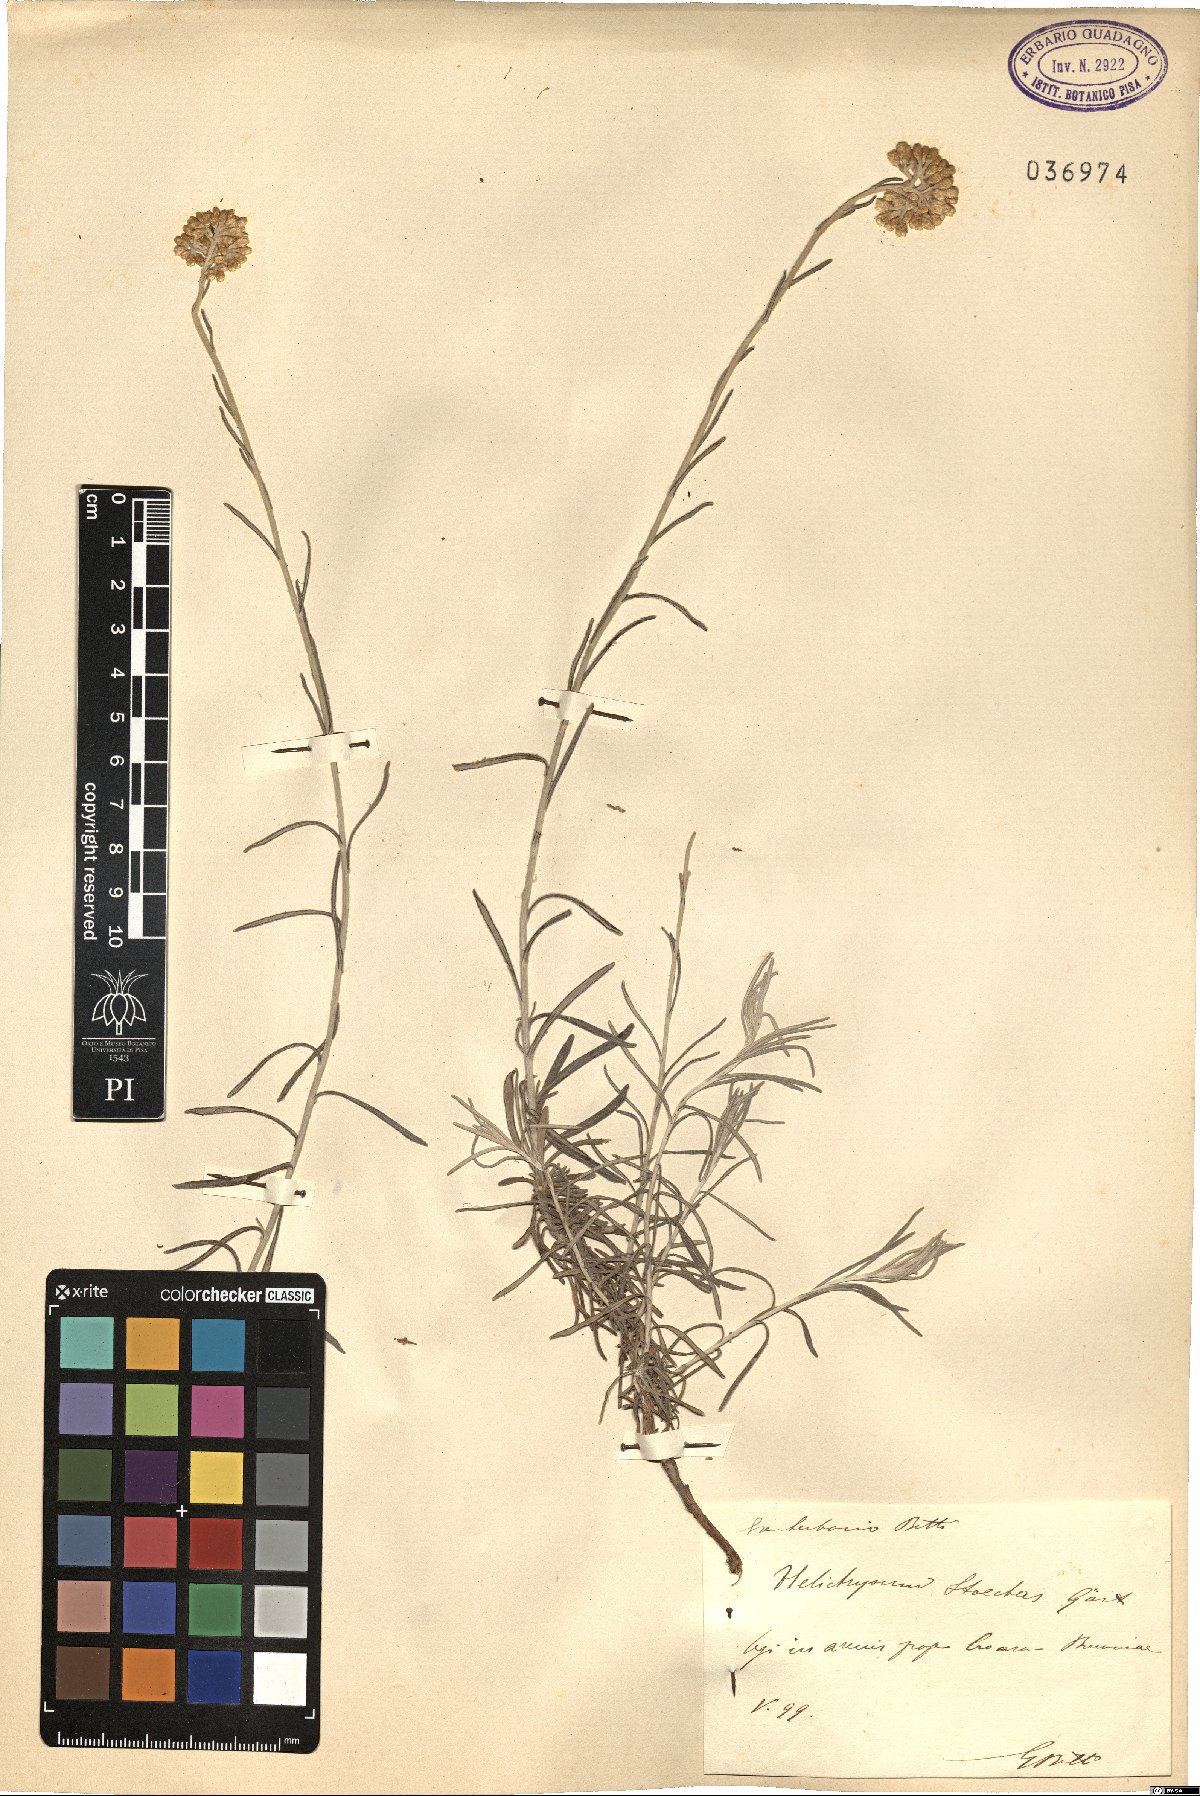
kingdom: Plantae
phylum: Tracheophyta
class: Magnoliopsida
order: Asterales
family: Asteraceae
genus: Helichrysum
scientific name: Helichrysum stoechas
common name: Goldilocks
